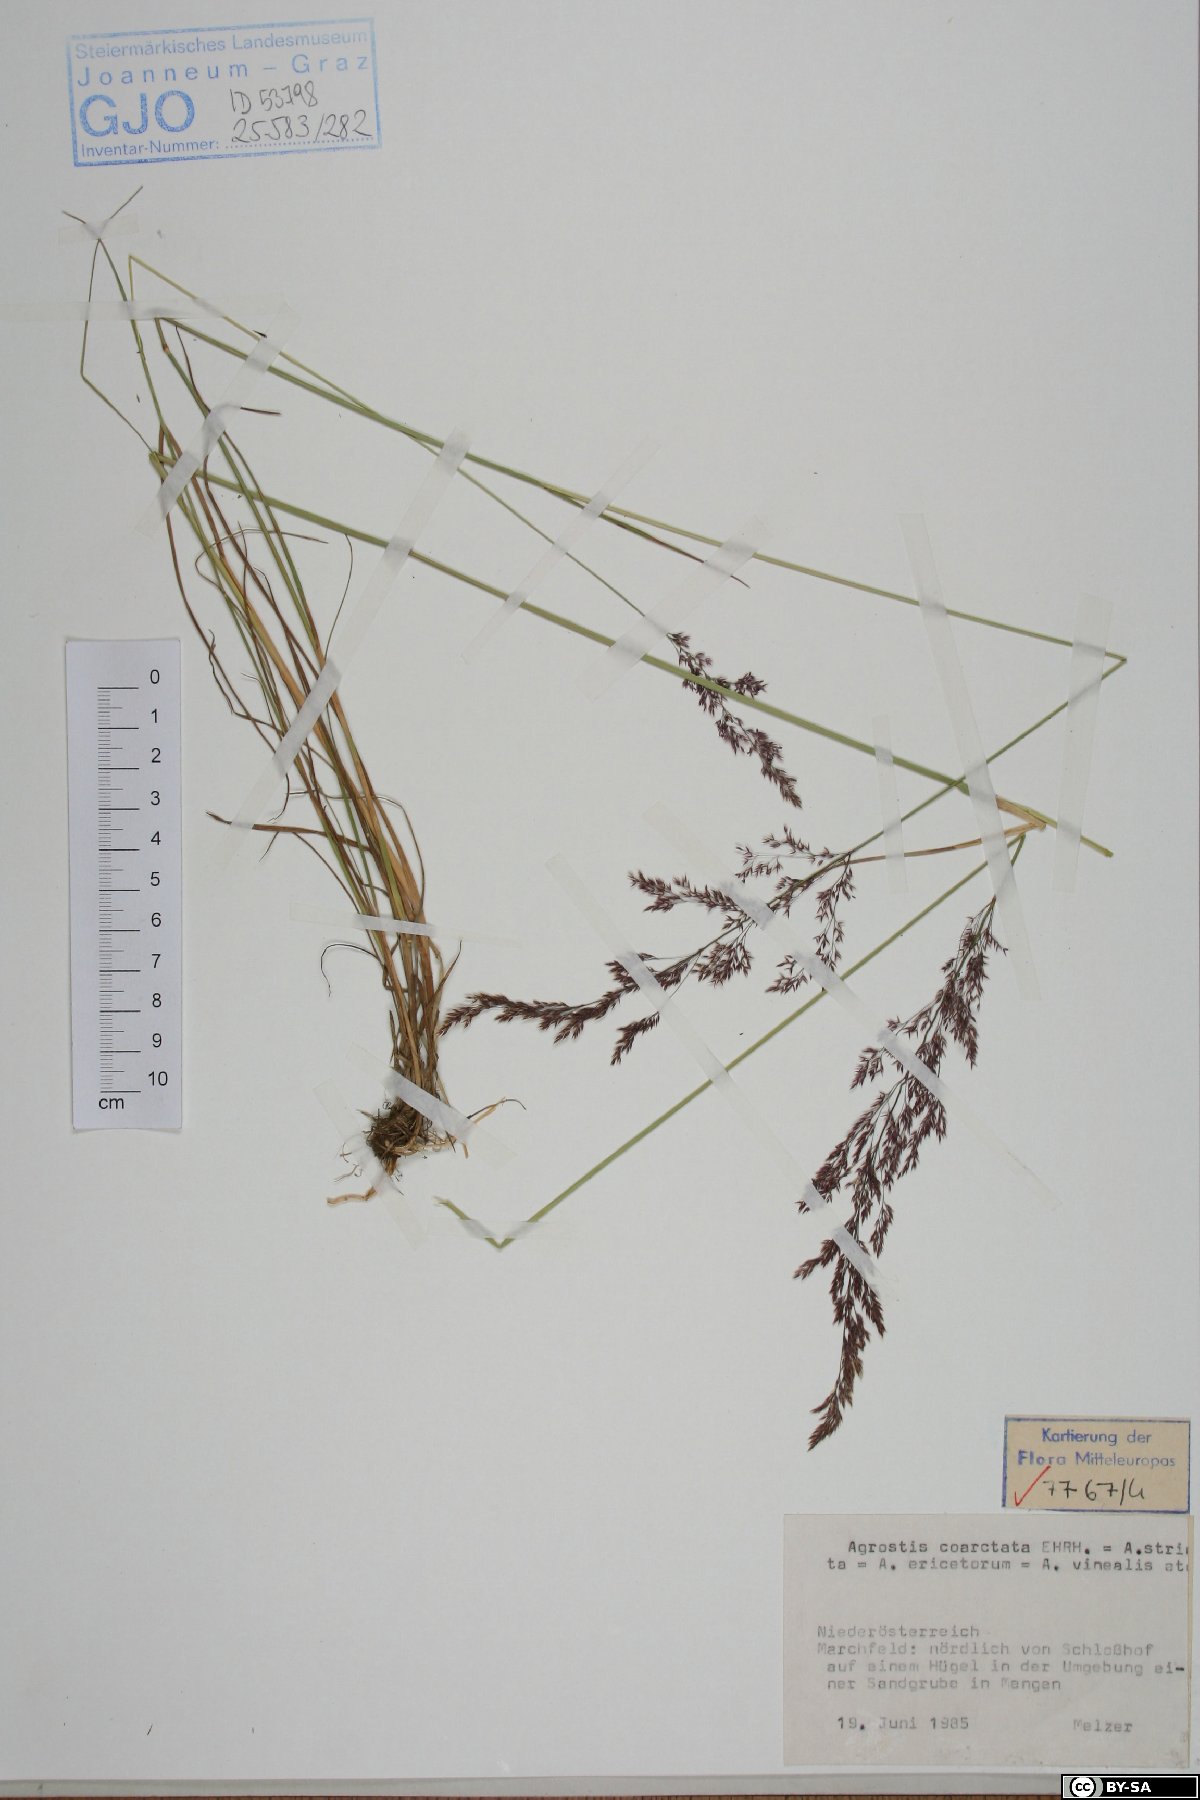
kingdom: Plantae
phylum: Tracheophyta
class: Liliopsida
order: Poales
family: Poaceae
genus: Agrostis
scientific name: Agrostis vinealis
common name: Brown bent
